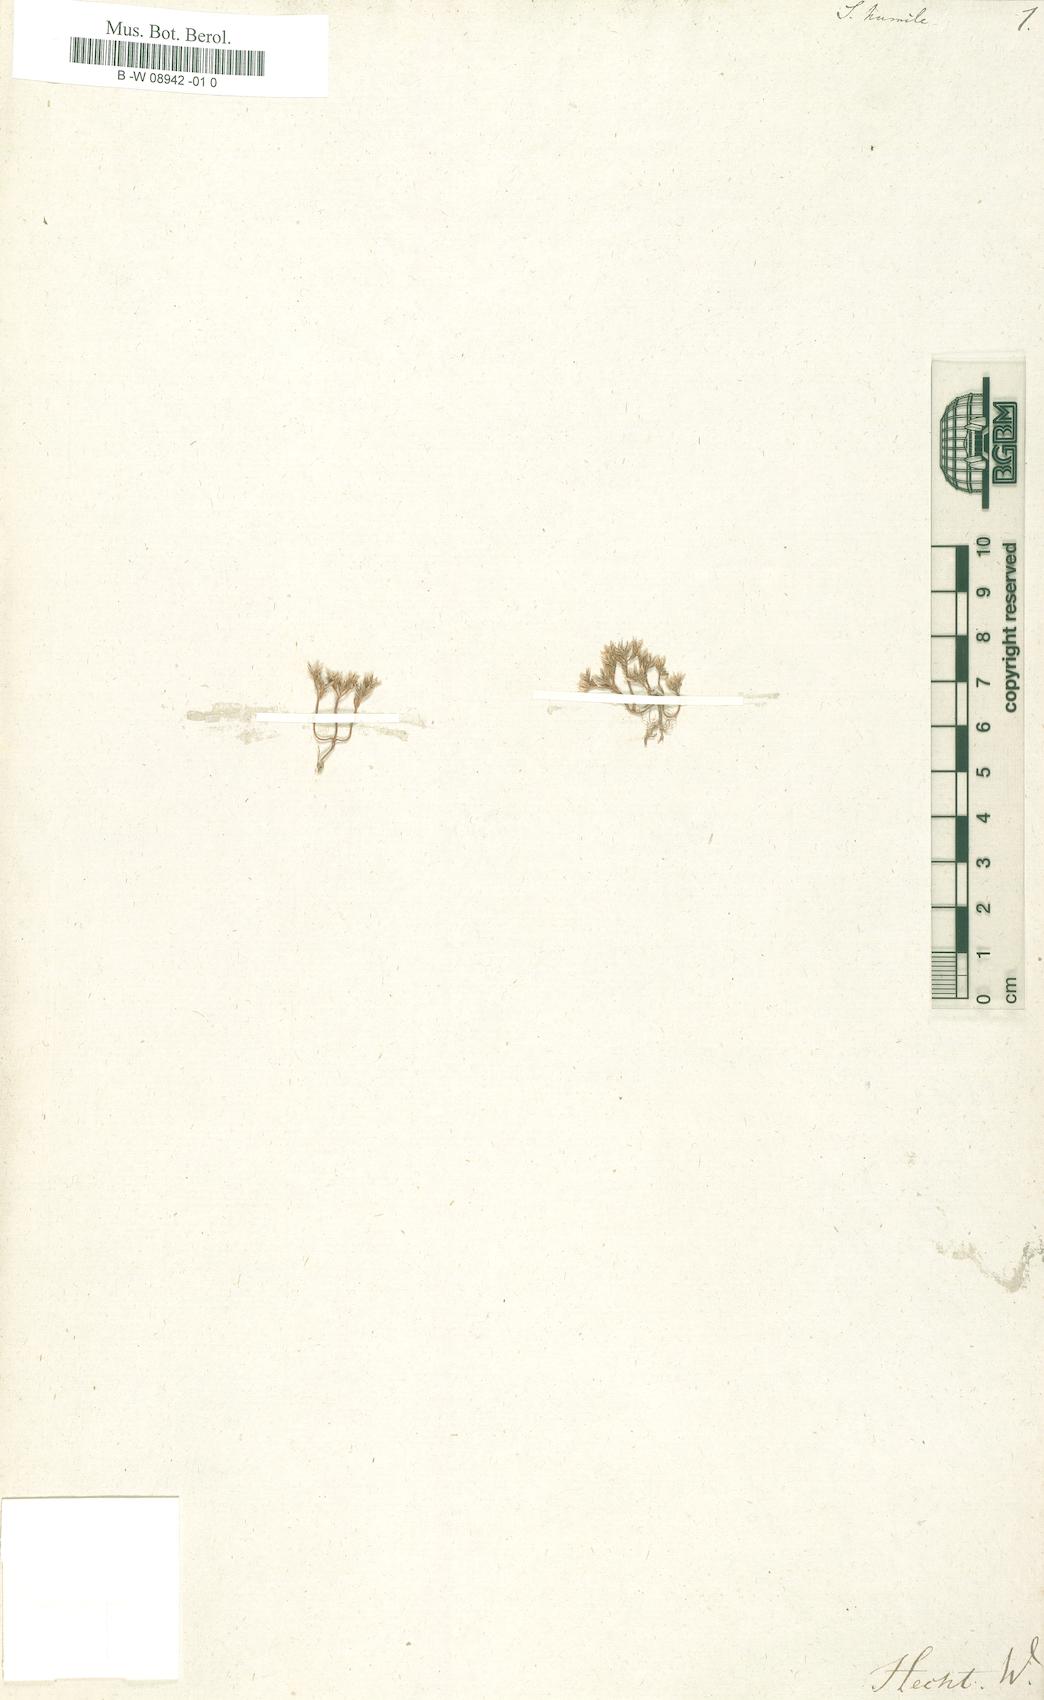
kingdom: Plantae
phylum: Tracheophyta
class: Magnoliopsida
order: Saxifragales
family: Crassulaceae
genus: Rhodiola
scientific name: Rhodiola humilis
